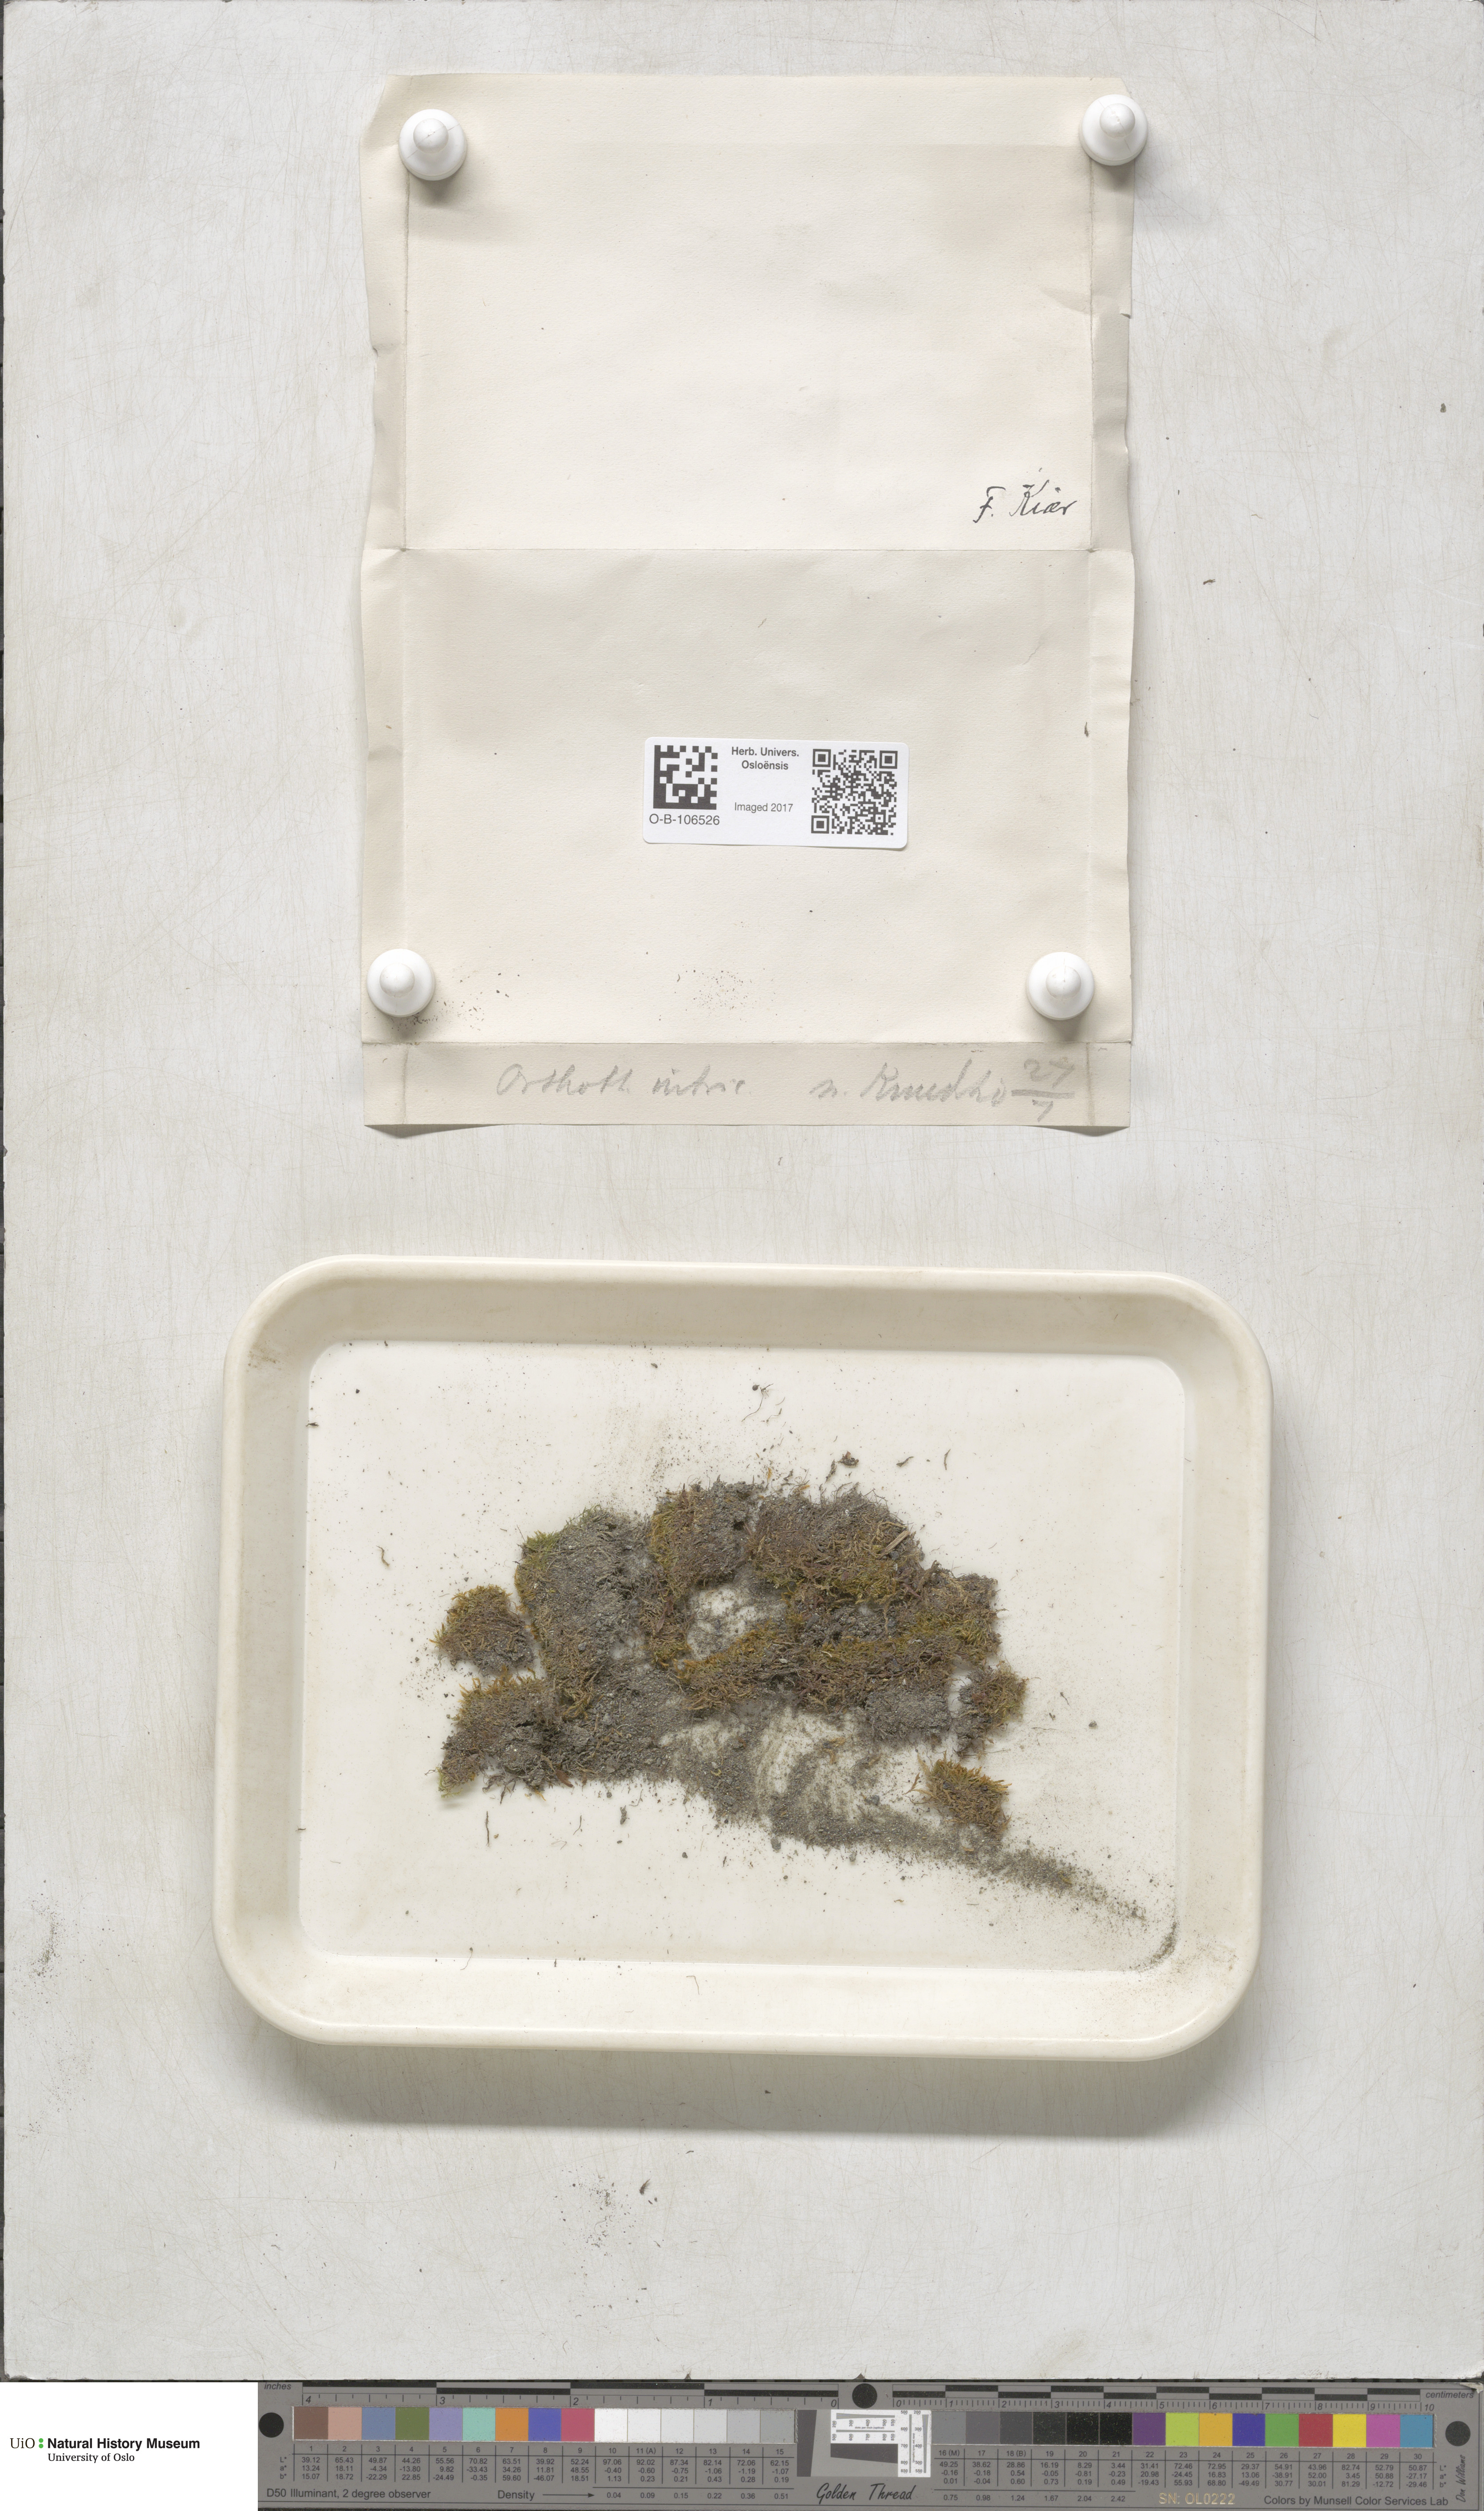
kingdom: Plantae
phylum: Bryophyta
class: Bryopsida
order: Hypnales
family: Plagiotheciaceae
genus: Orthothecium
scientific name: Orthothecium intricatum
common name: Fine-leaved erect-capsule moss
